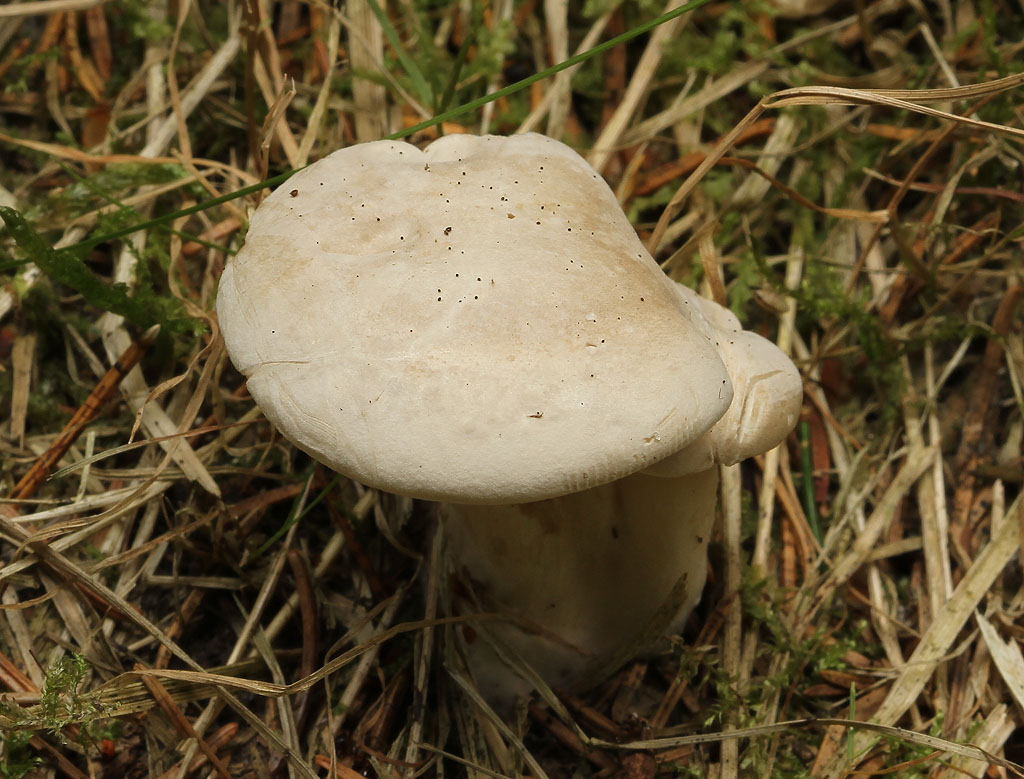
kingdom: Fungi
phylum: Basidiomycota
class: Agaricomycetes
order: Agaricales
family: Entolomataceae
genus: Clitopilus
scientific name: Clitopilus prunulus
